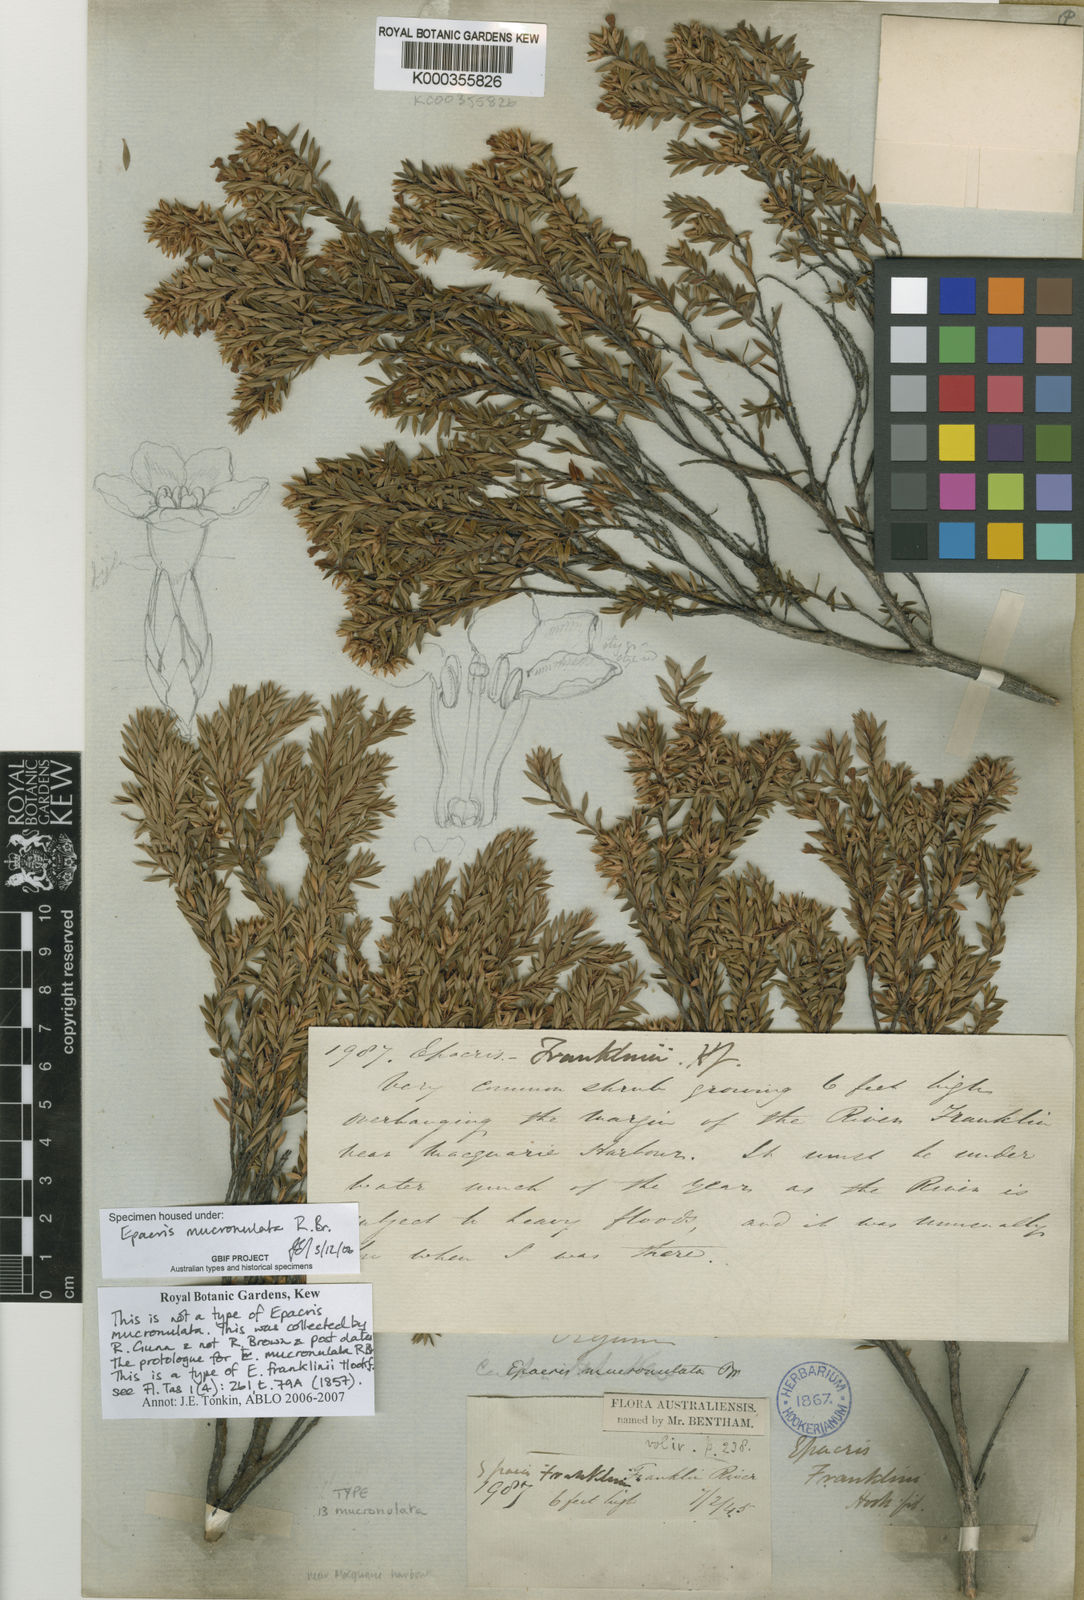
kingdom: Plantae
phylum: Tracheophyta
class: Magnoliopsida
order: Ericales
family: Ericaceae
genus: Epacris
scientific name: Epacris mucronulata
